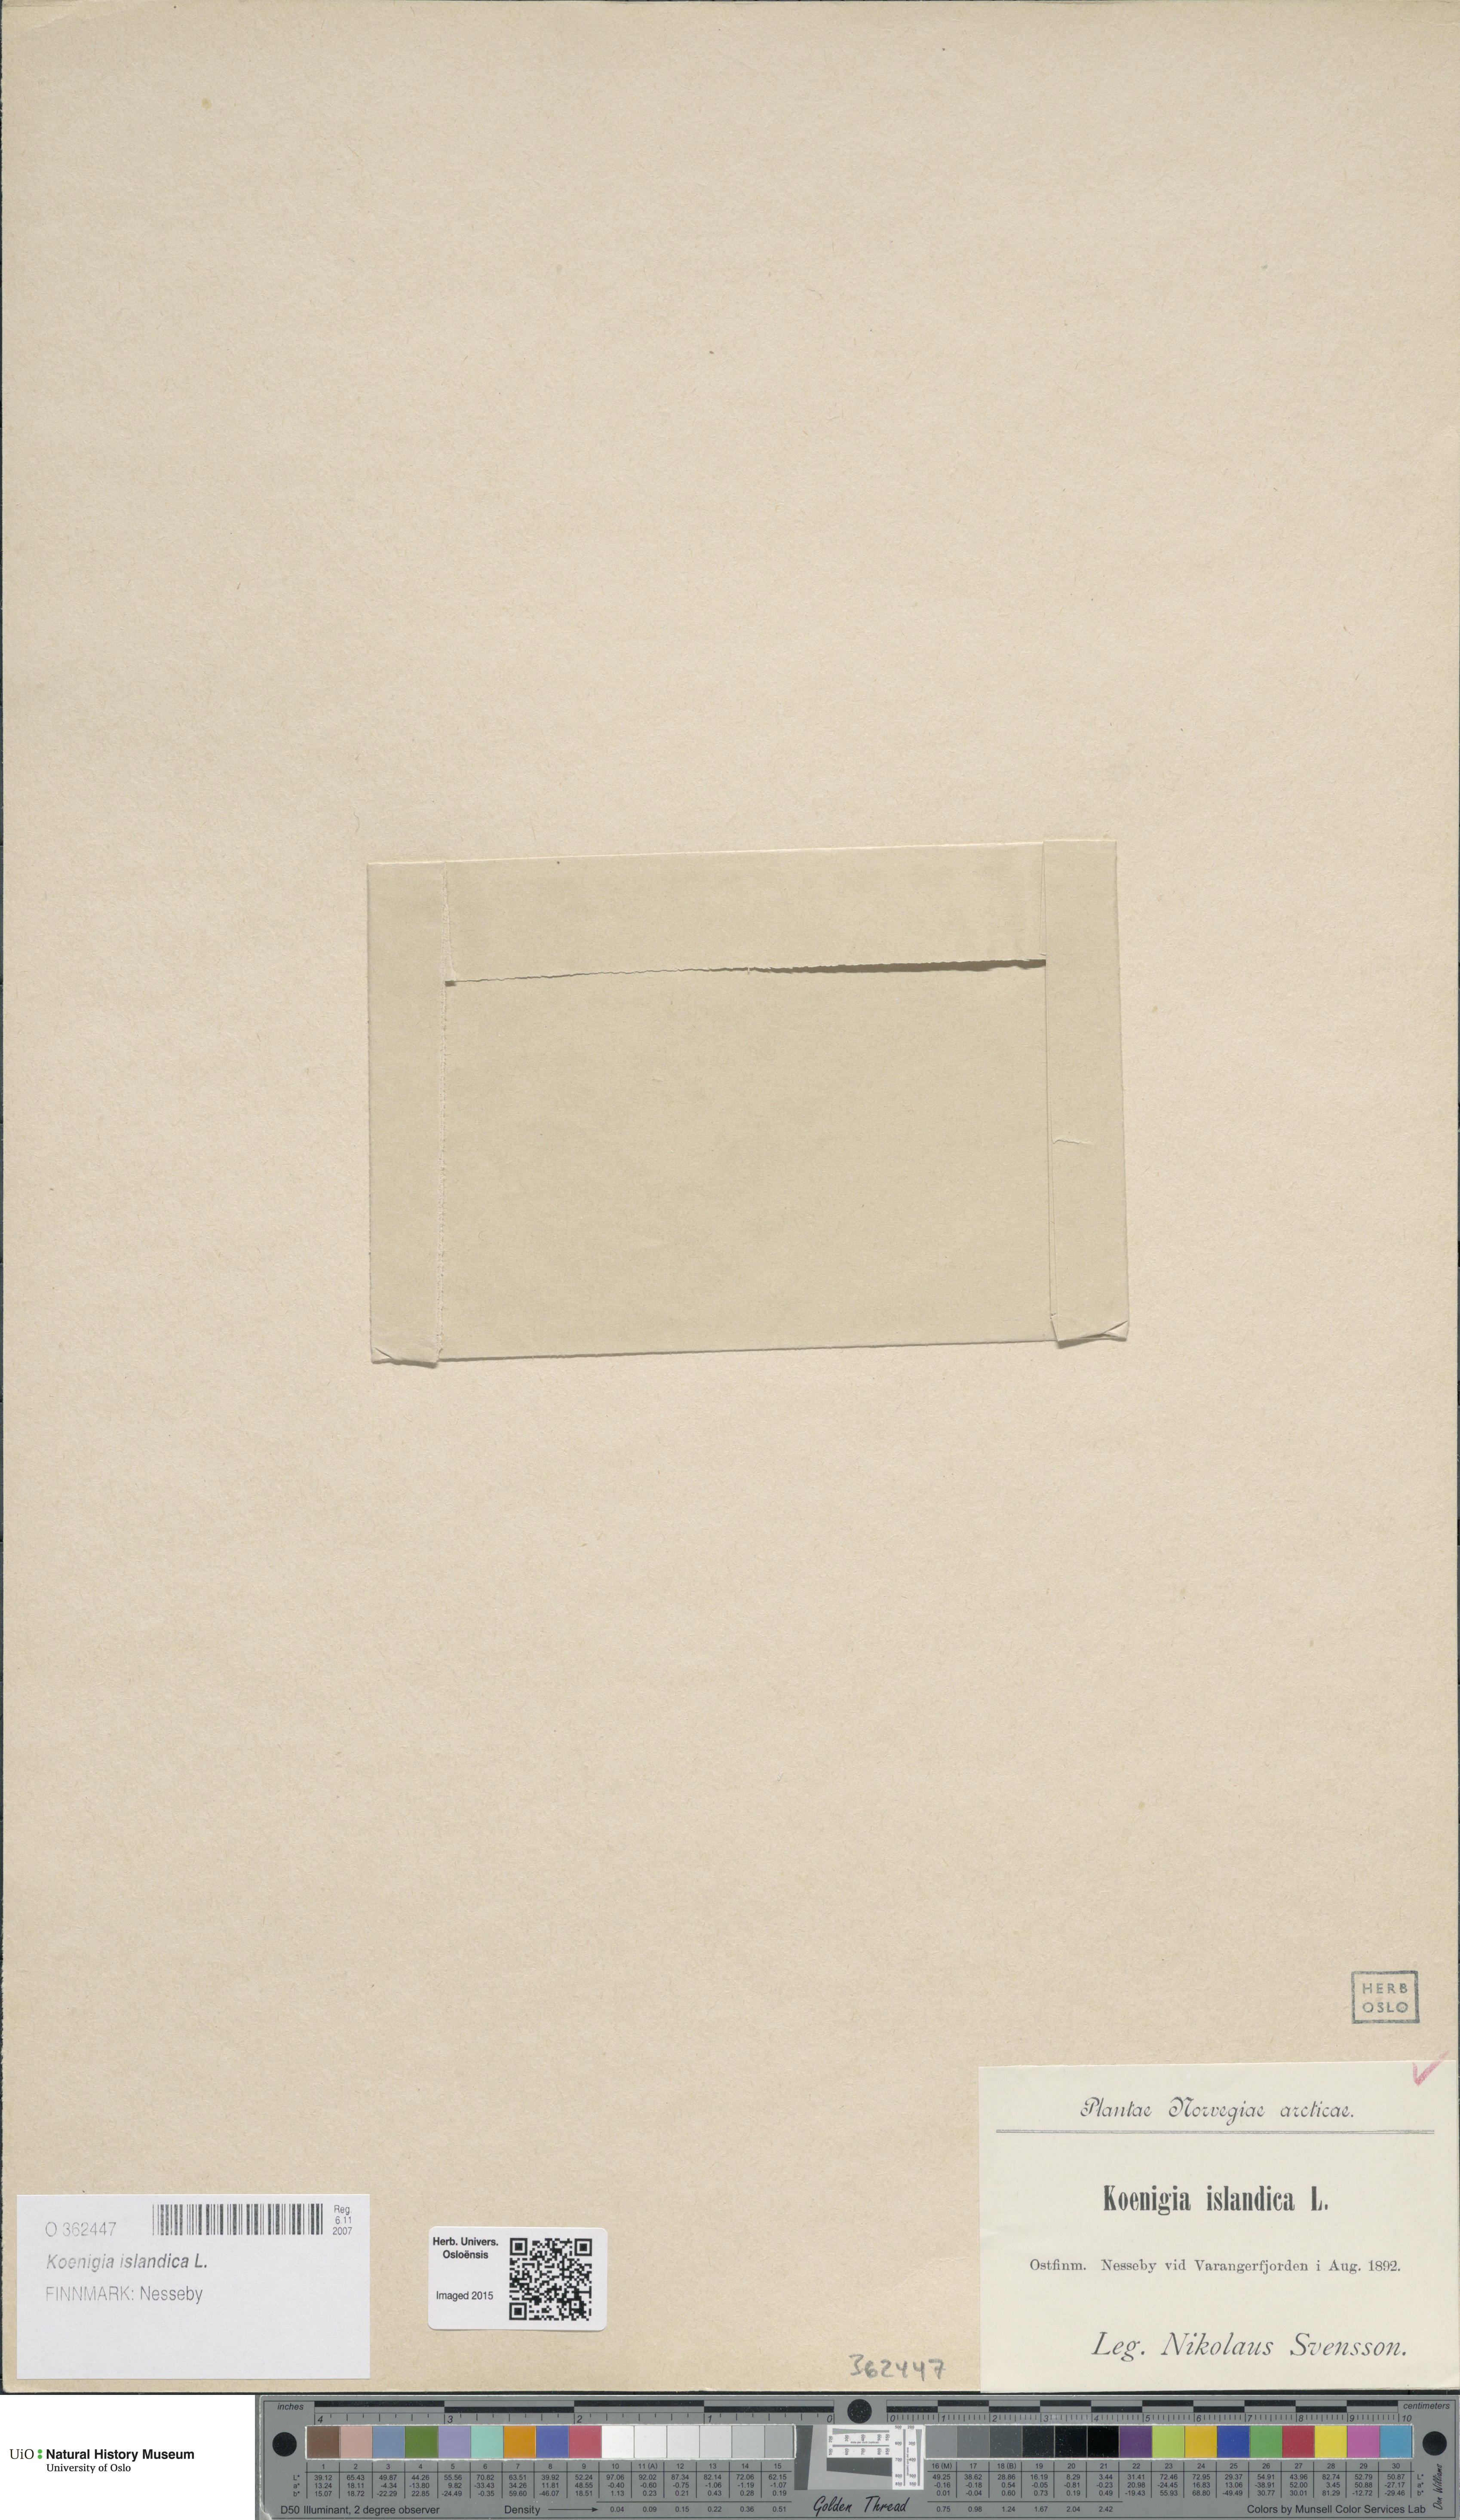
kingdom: Plantae
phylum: Tracheophyta
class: Magnoliopsida
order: Caryophyllales
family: Polygonaceae
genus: Koenigia
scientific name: Koenigia islandica
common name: Iceland-purslane
